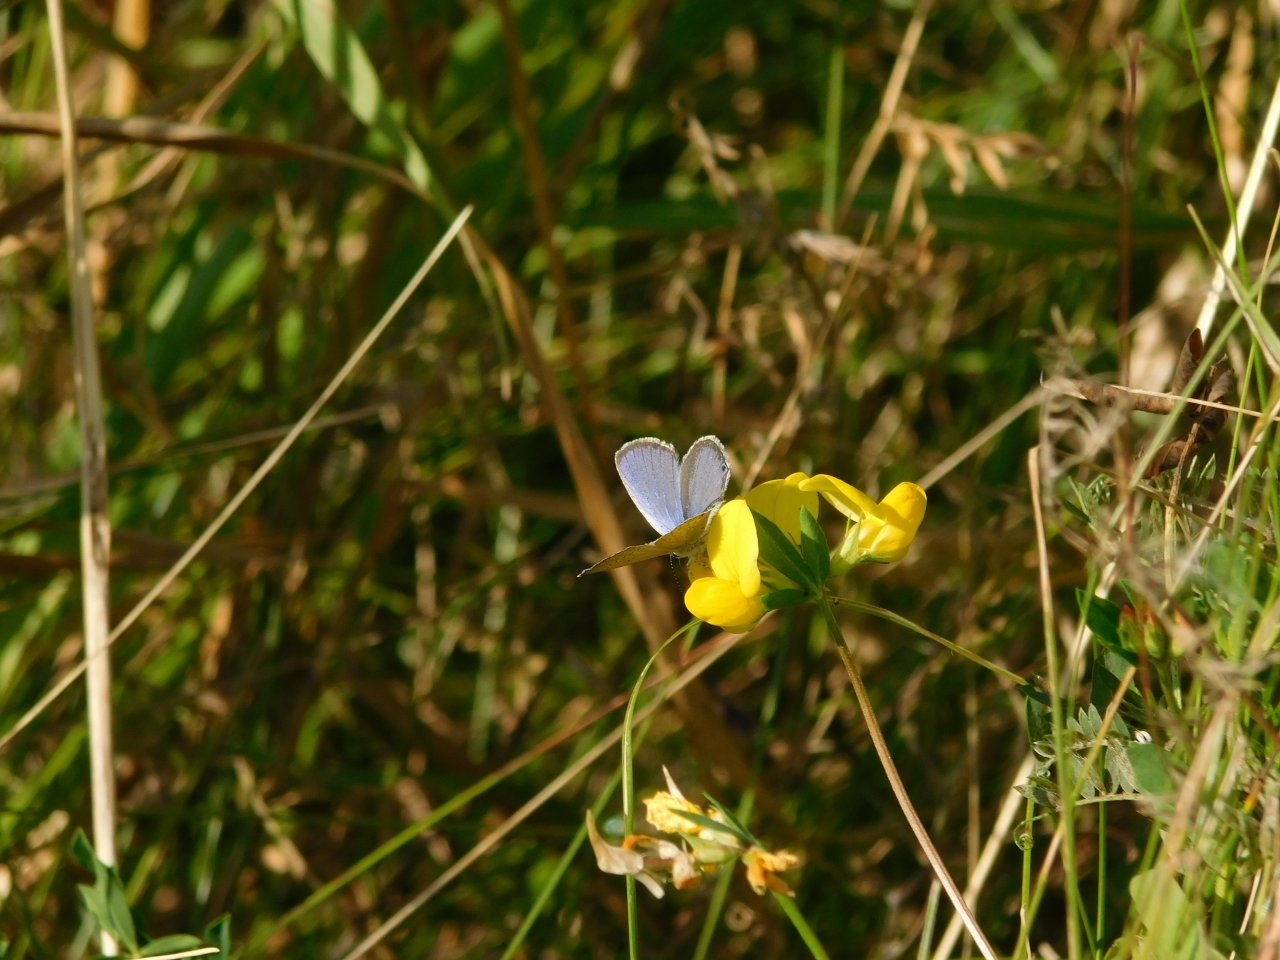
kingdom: Animalia
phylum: Arthropoda
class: Insecta
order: Lepidoptera
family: Lycaenidae
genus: Elkalyce
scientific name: Elkalyce comyntas
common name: Eastern Tailed-Blue
